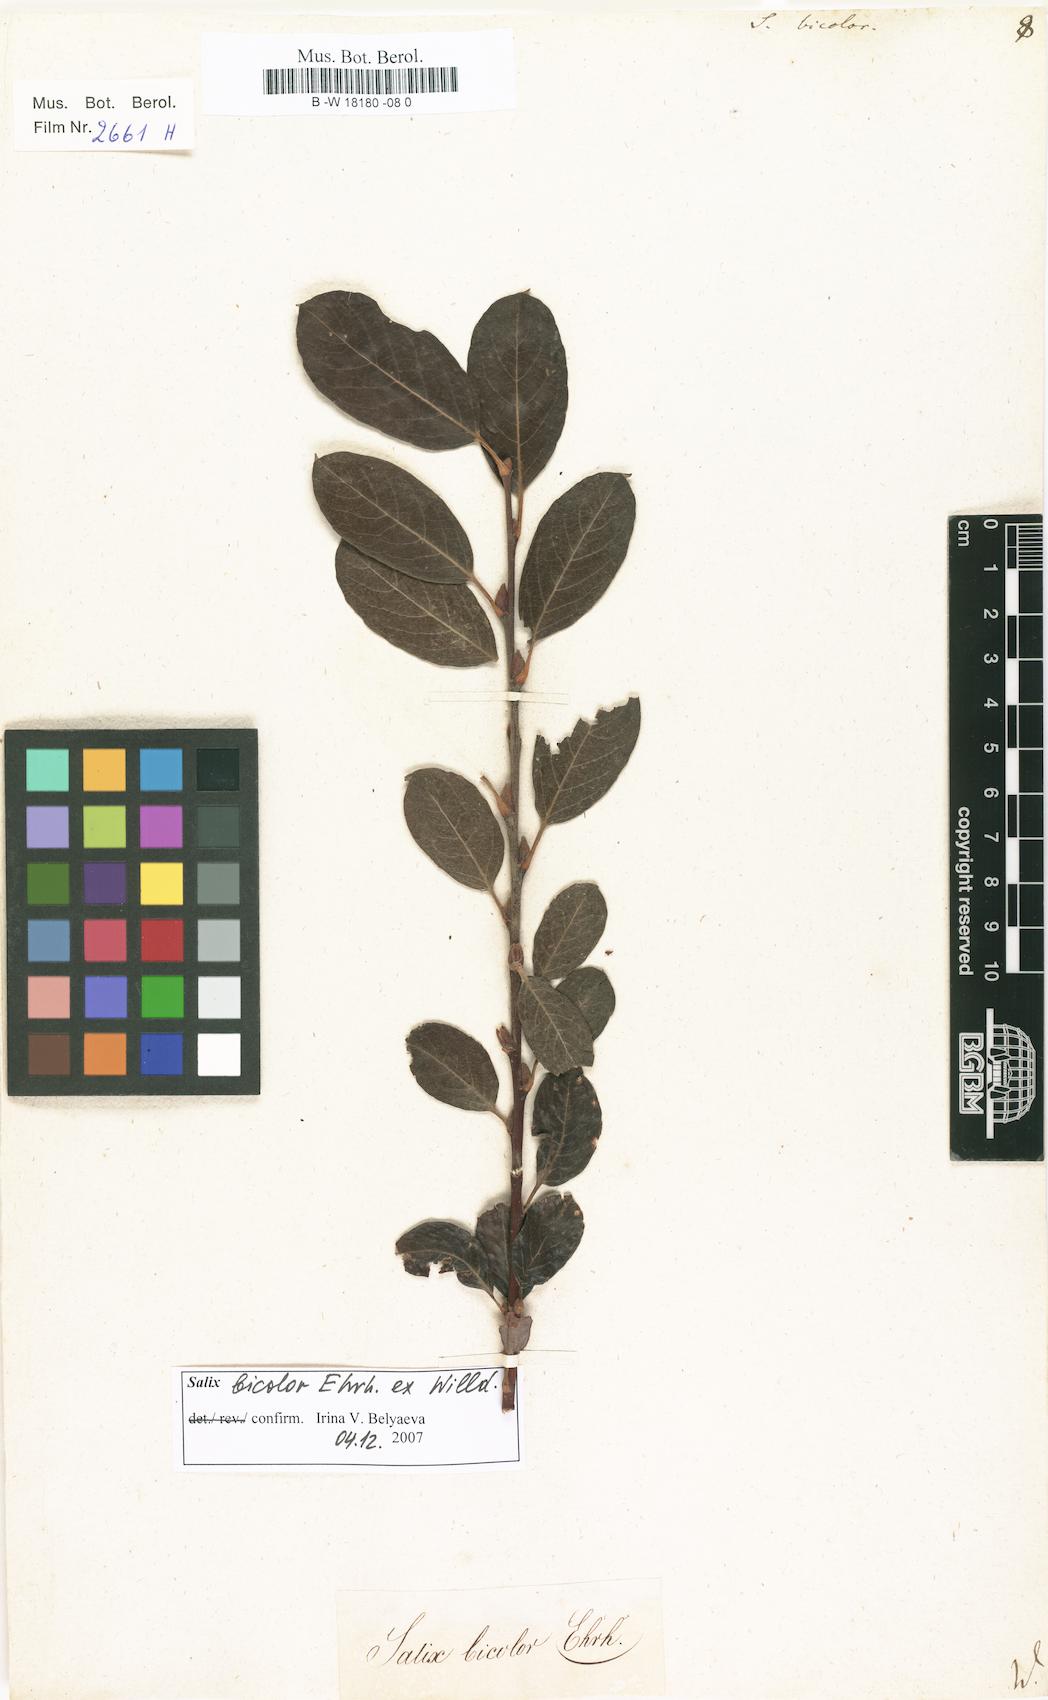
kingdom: Plantae
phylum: Tracheophyta
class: Magnoliopsida
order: Malpighiales
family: Salicaceae
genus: Salix
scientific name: Salix bicolor
